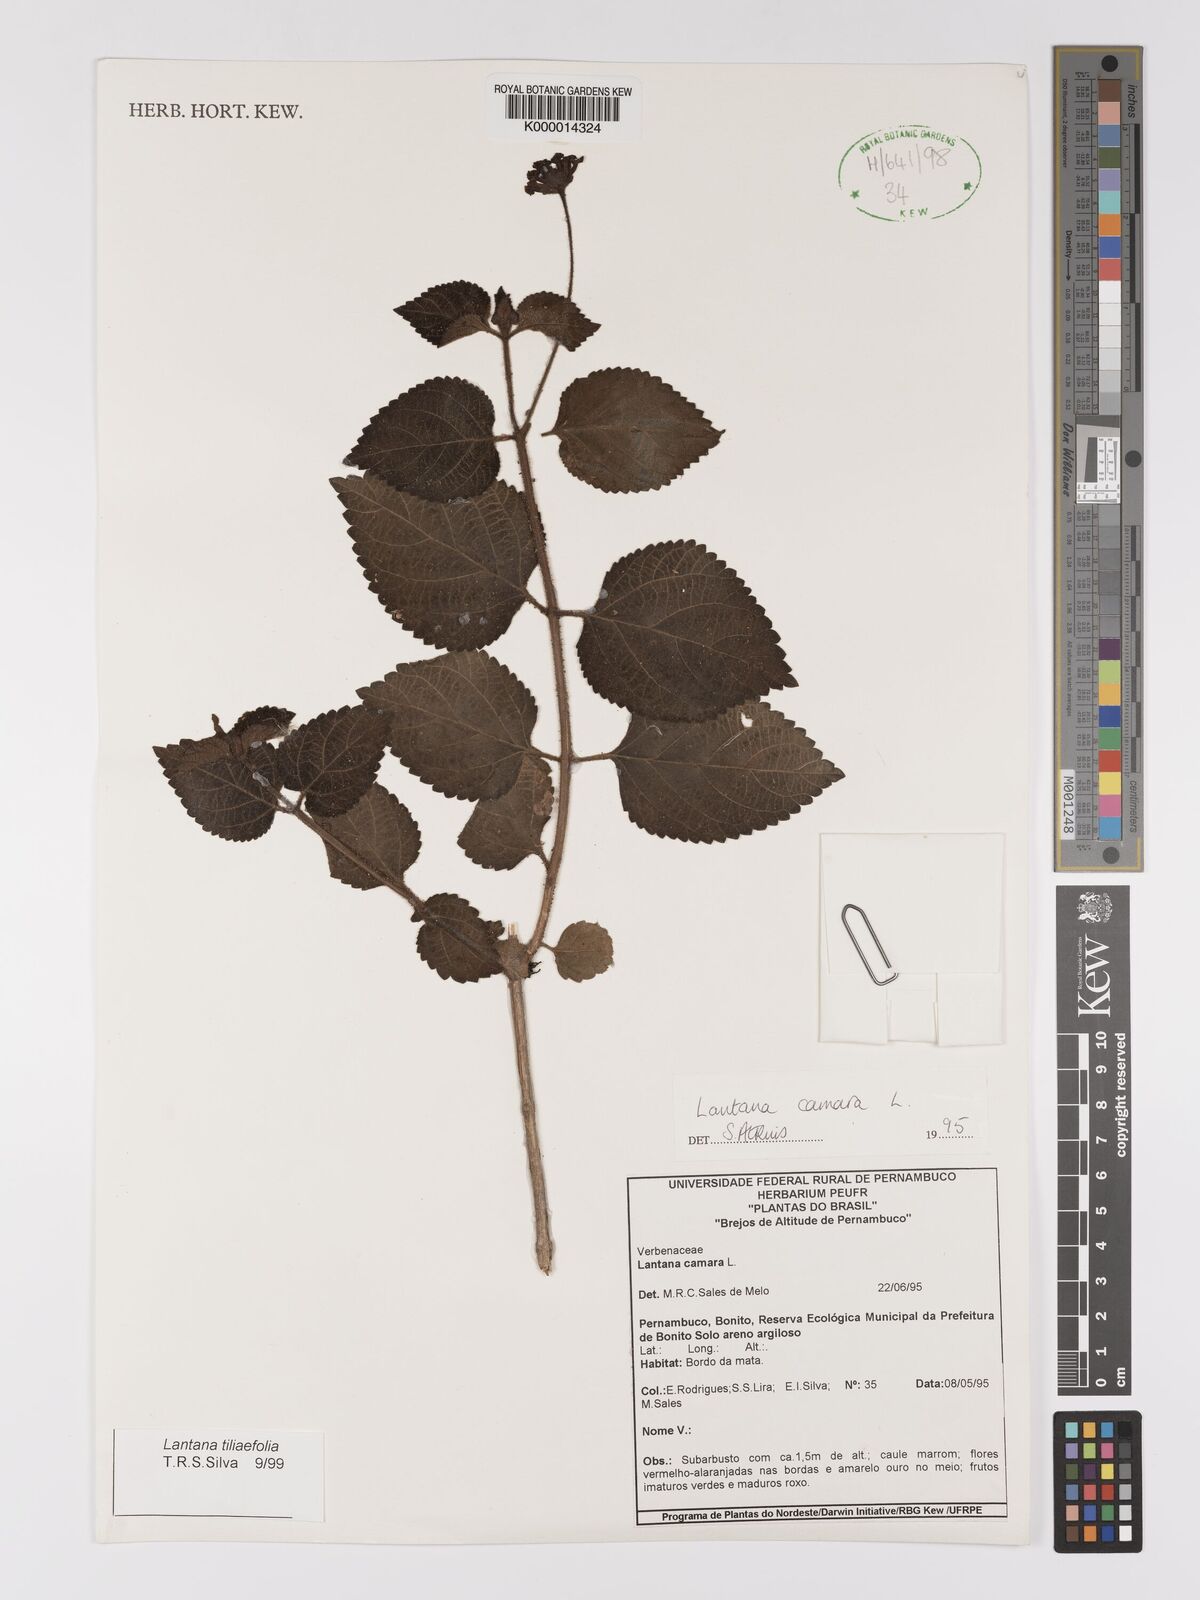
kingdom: Plantae
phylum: Tracheophyta
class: Magnoliopsida
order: Lamiales
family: Verbenaceae
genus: Lantana
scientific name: Lantana
